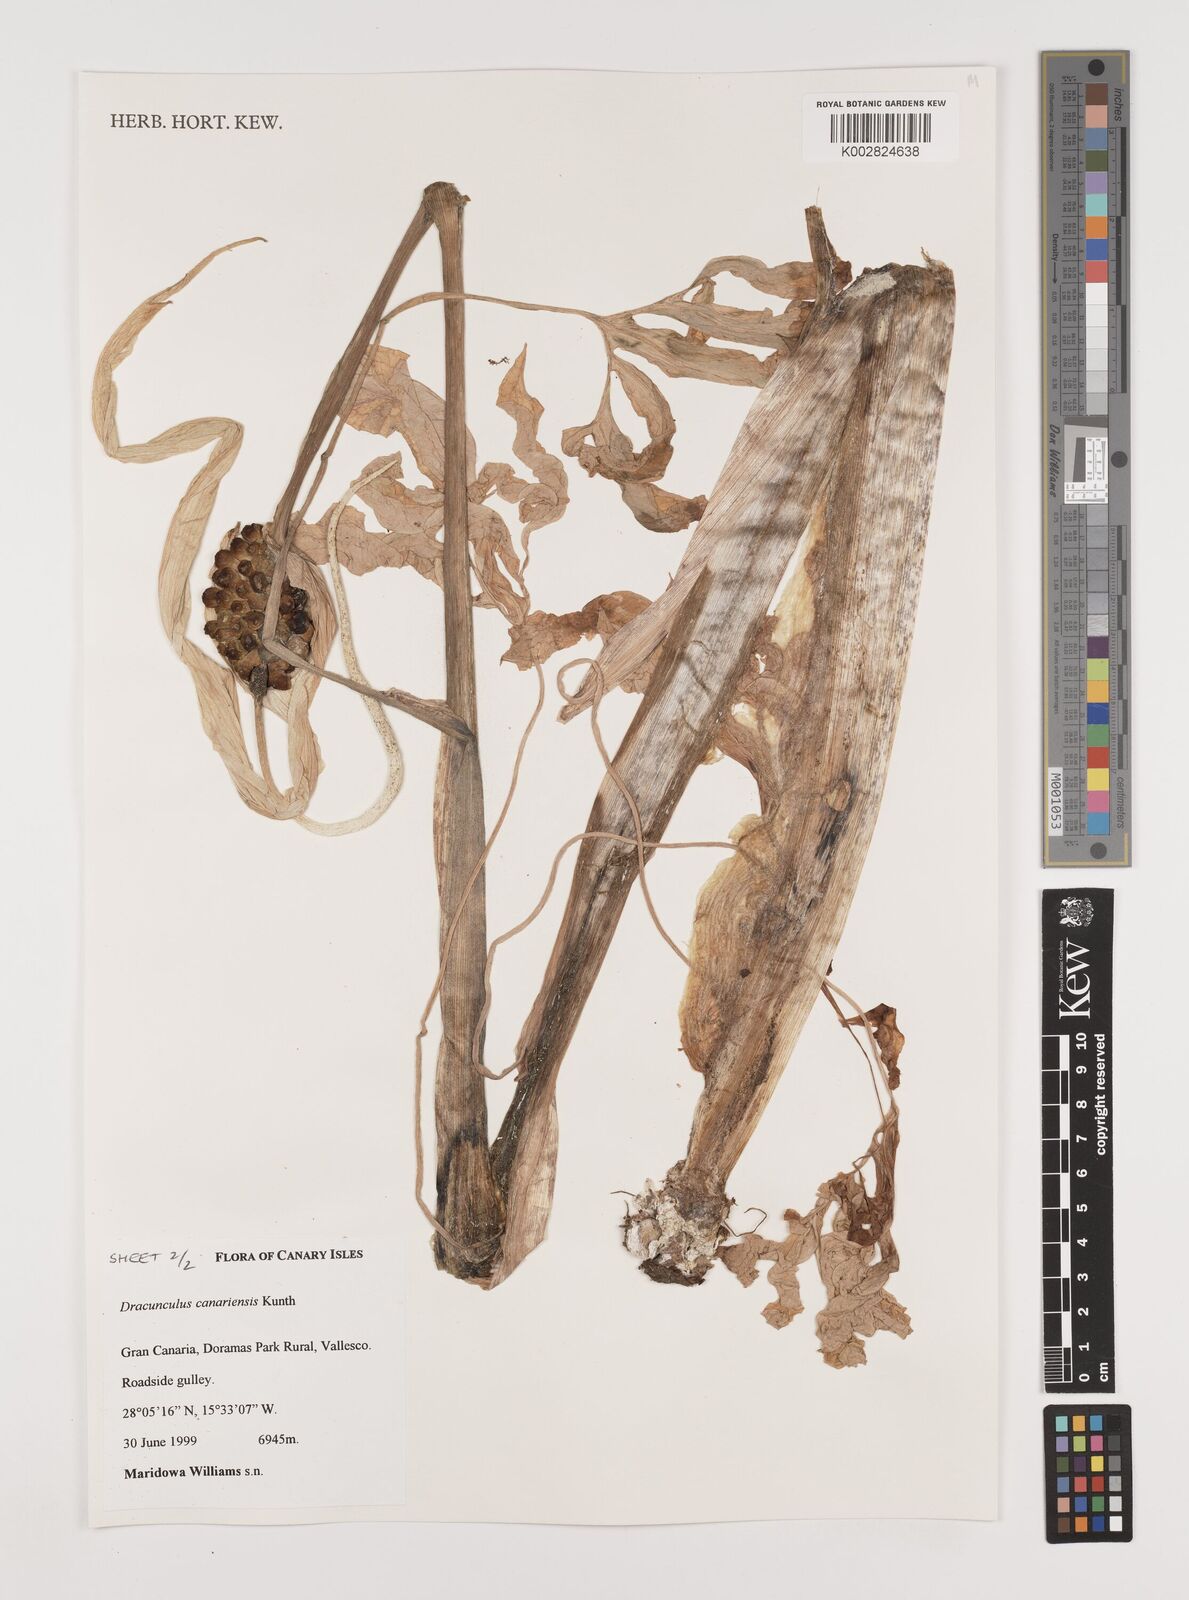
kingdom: Plantae
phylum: Tracheophyta
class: Liliopsida
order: Alismatales
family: Araceae
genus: Dracunculus
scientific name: Dracunculus
